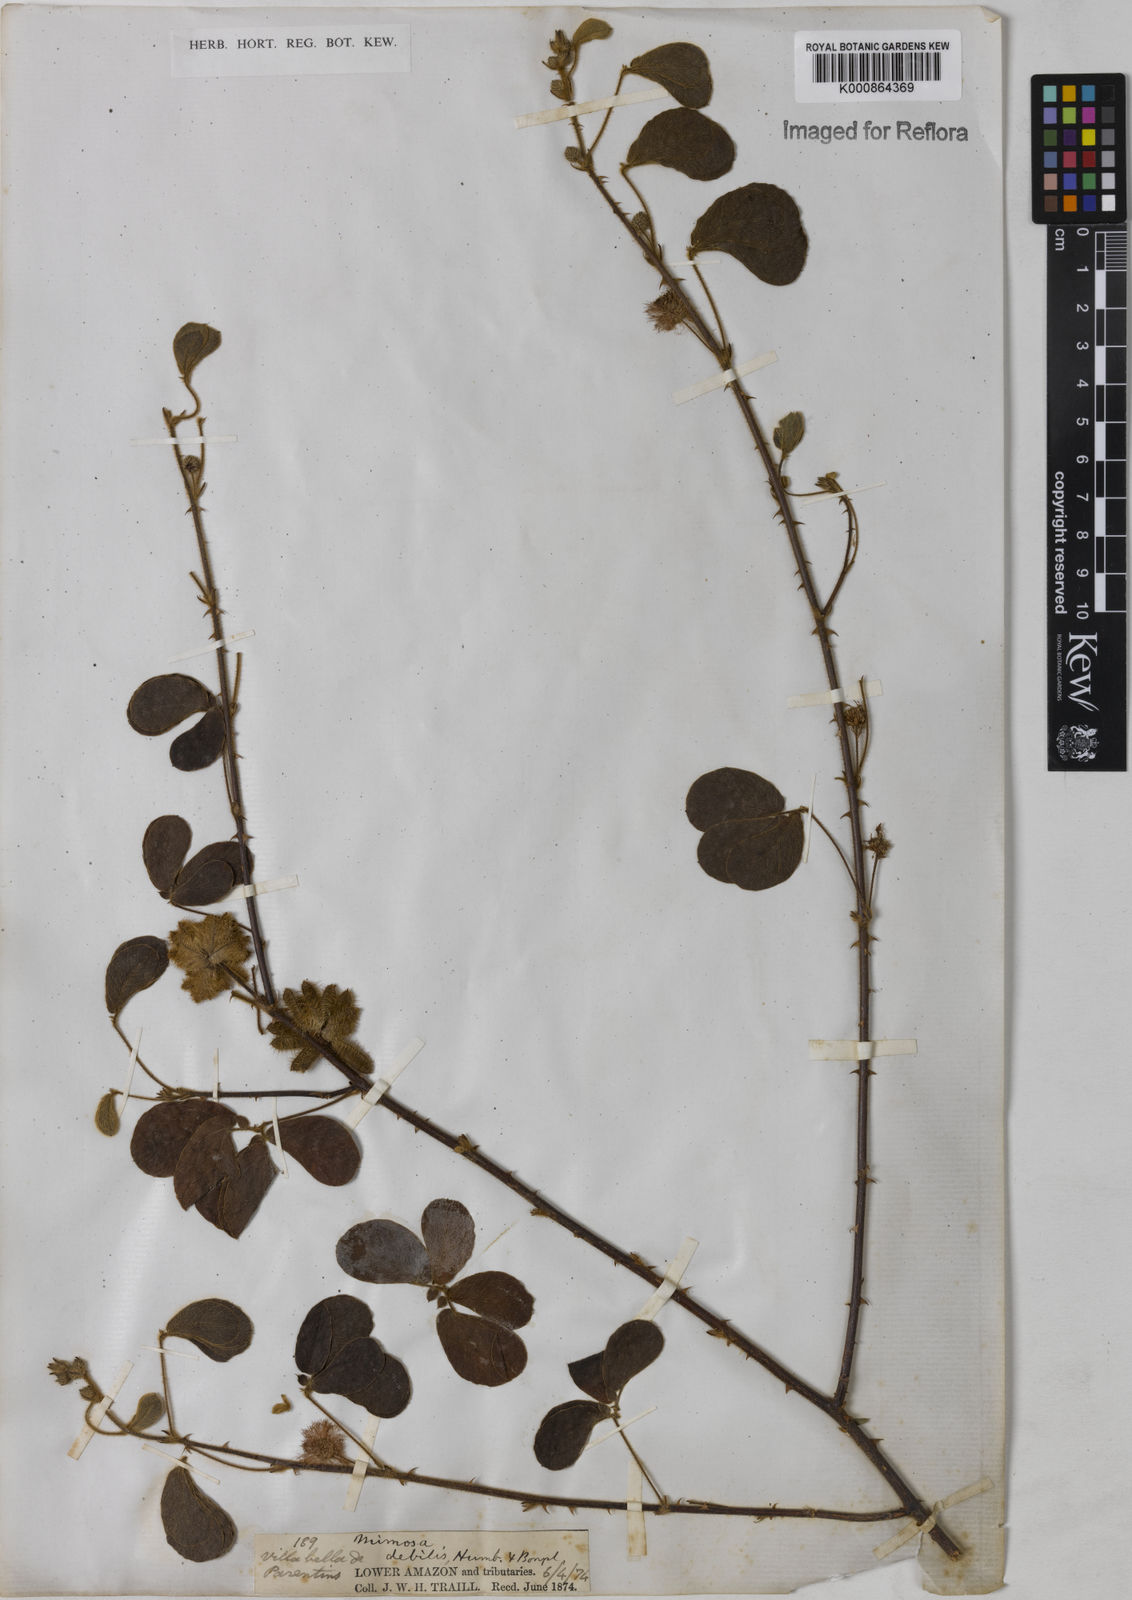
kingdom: Plantae
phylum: Tracheophyta
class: Magnoliopsida
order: Fabales
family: Fabaceae
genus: Mimosa
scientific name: Mimosa
